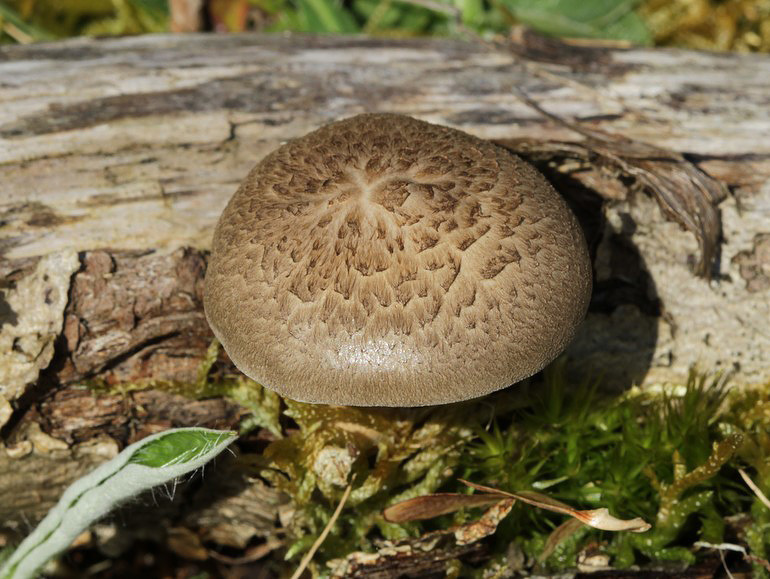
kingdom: Fungi
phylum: Basidiomycota
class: Agaricomycetes
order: Polyporales
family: Polyporaceae
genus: Lentinus
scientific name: Lentinus substrictus
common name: forårs-stilkporesvamp
